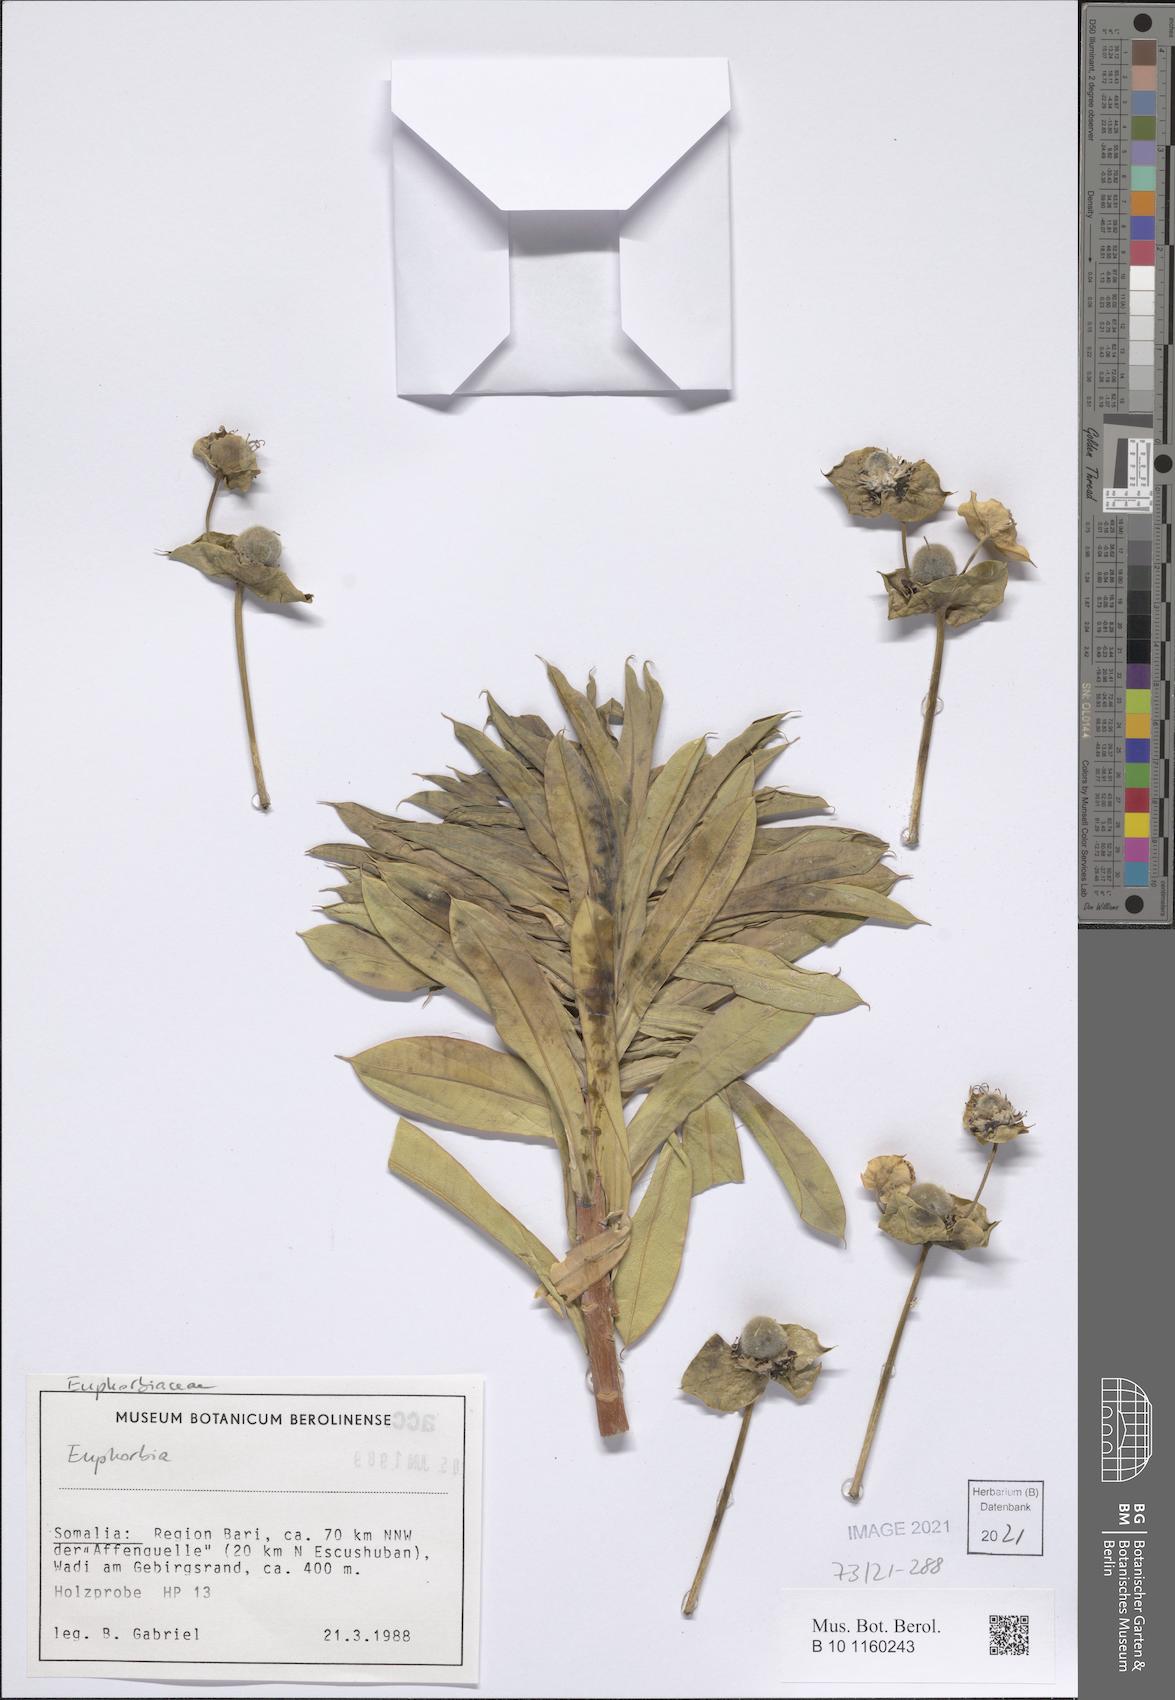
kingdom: Plantae
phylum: Tracheophyta
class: Magnoliopsida
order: Malpighiales
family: Euphorbiaceae
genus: Euphorbia
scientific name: Euphorbia
